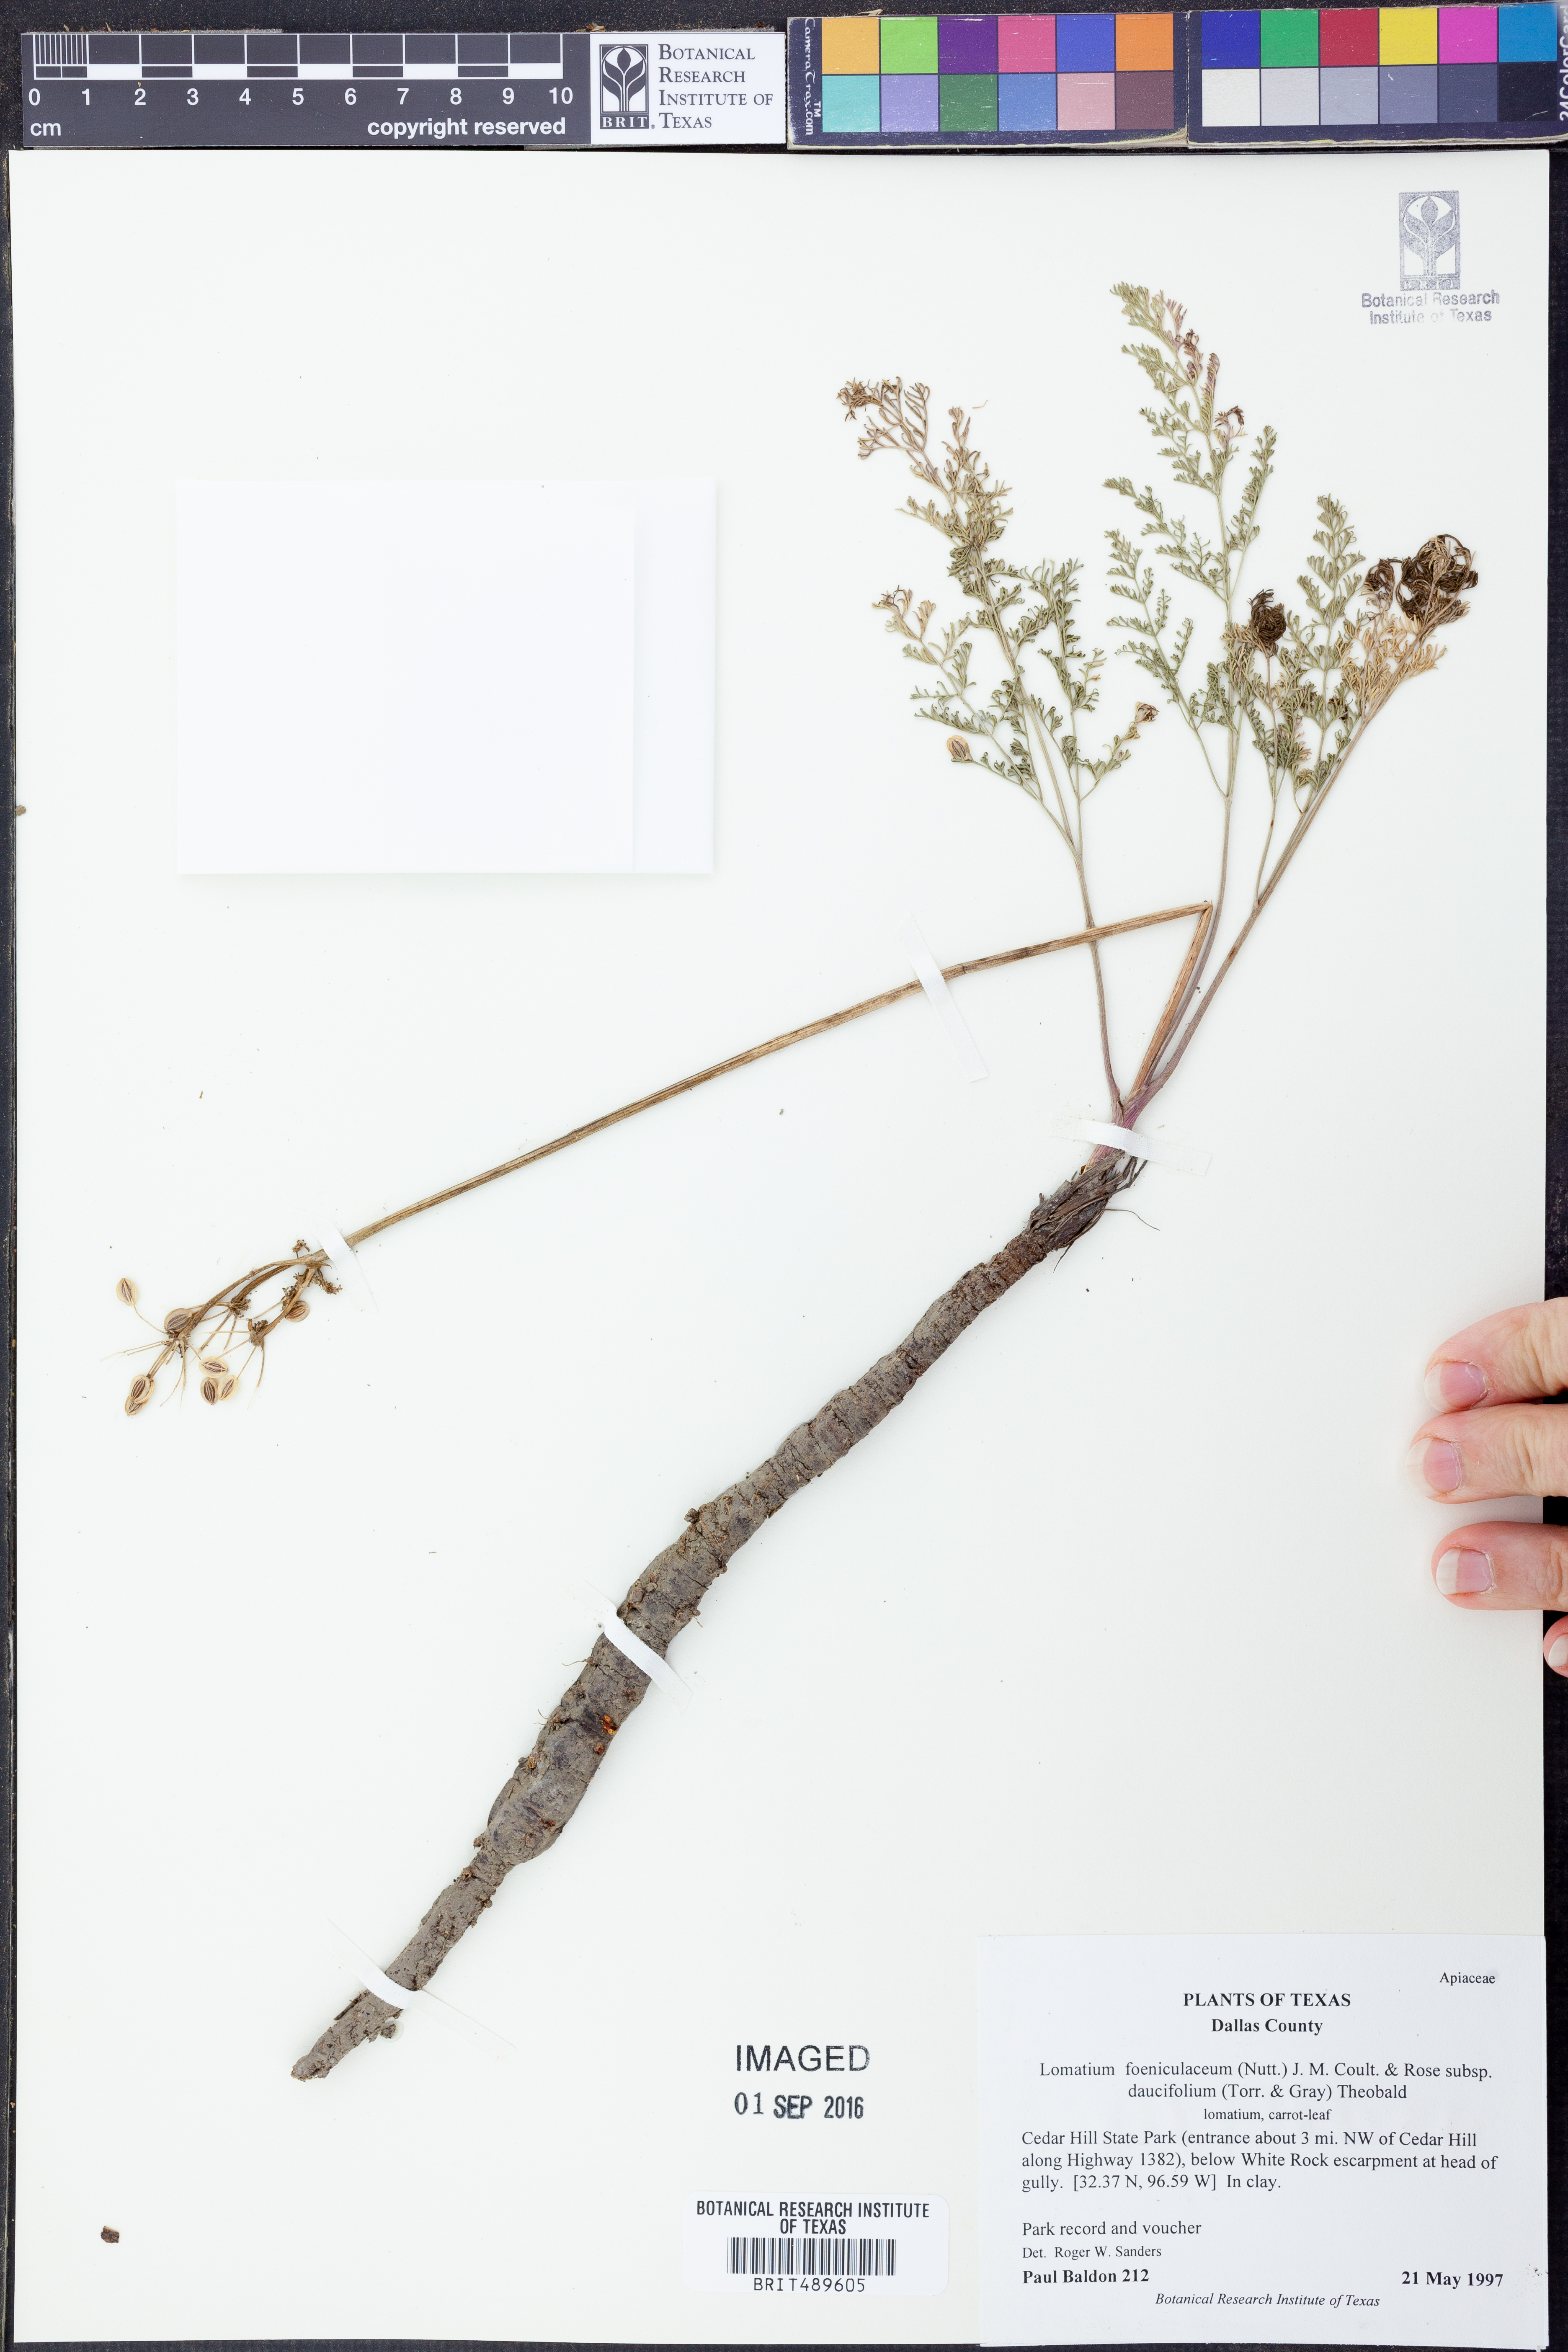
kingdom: Plantae
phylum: Tracheophyta
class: Magnoliopsida
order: Apiales
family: Apiaceae
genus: Lomatium
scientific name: Lomatium foeniculaceum
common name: Desert-parsley
